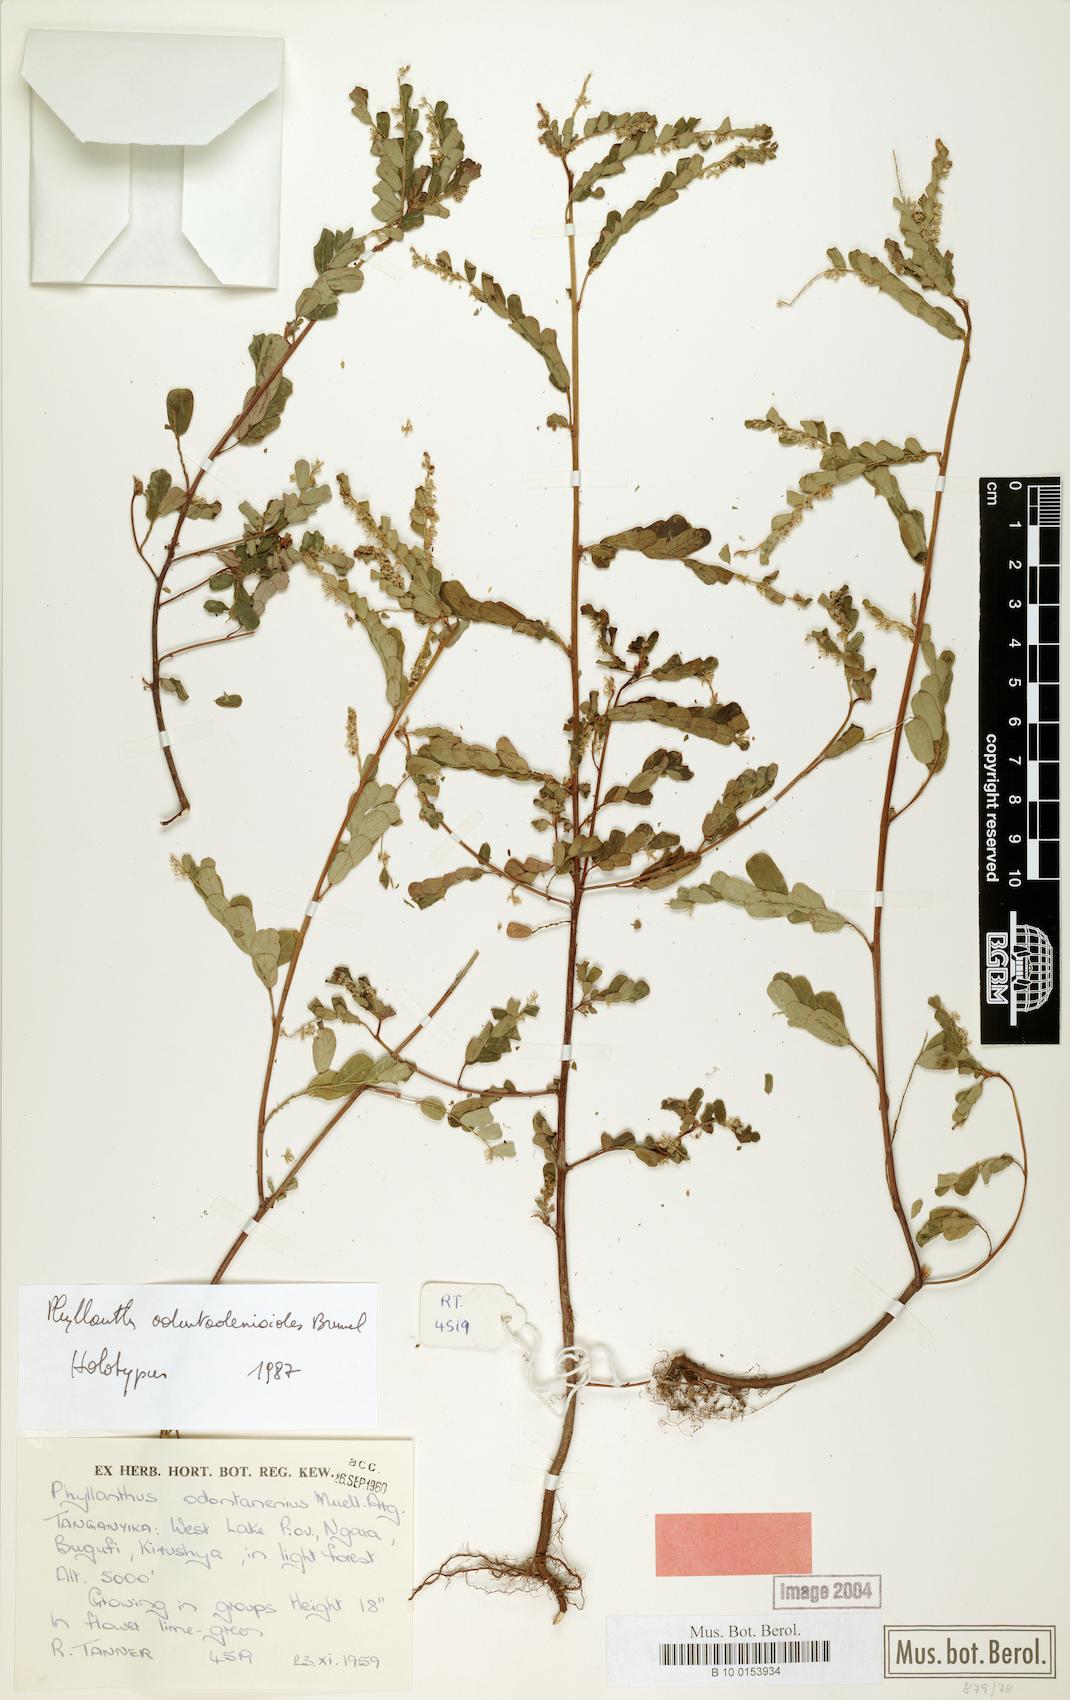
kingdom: Plantae
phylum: Tracheophyta
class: Magnoliopsida
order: Malpighiales
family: Phyllanthaceae
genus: Phyllanthus
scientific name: Phyllanthus pseudoniruri
